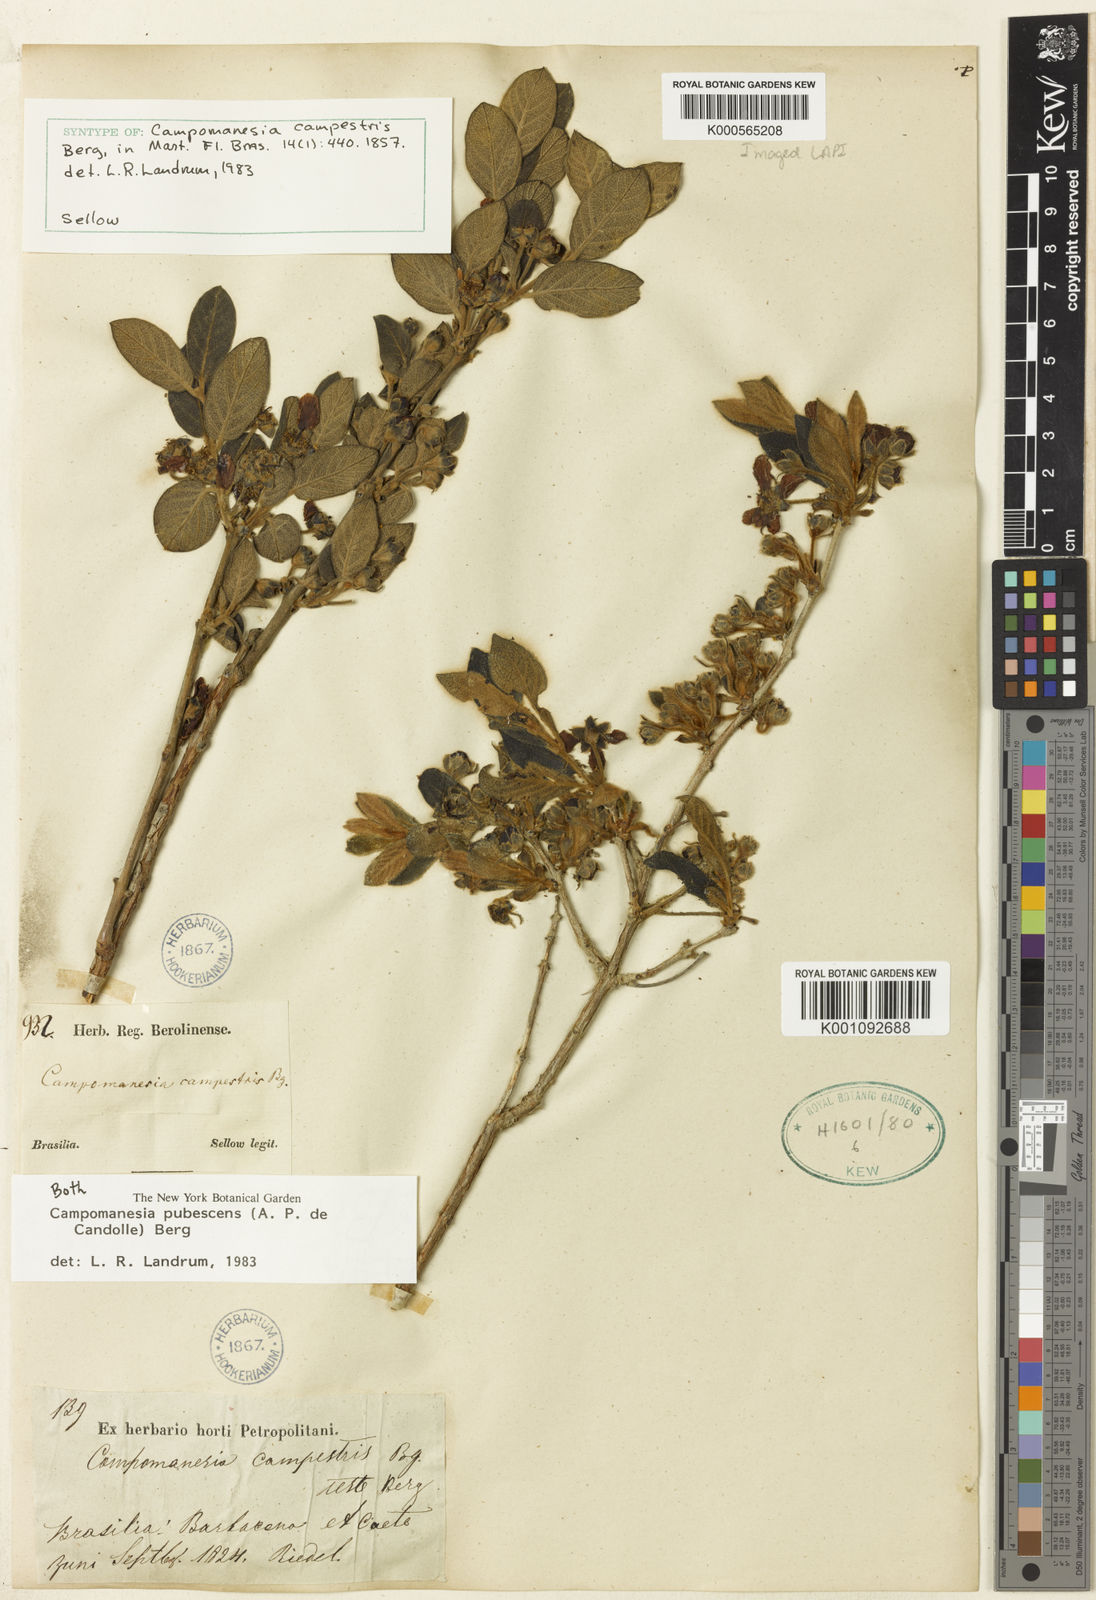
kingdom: Plantae
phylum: Tracheophyta
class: Magnoliopsida
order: Myrtales
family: Myrtaceae
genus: Campomanesia
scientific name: Campomanesia pubescens
